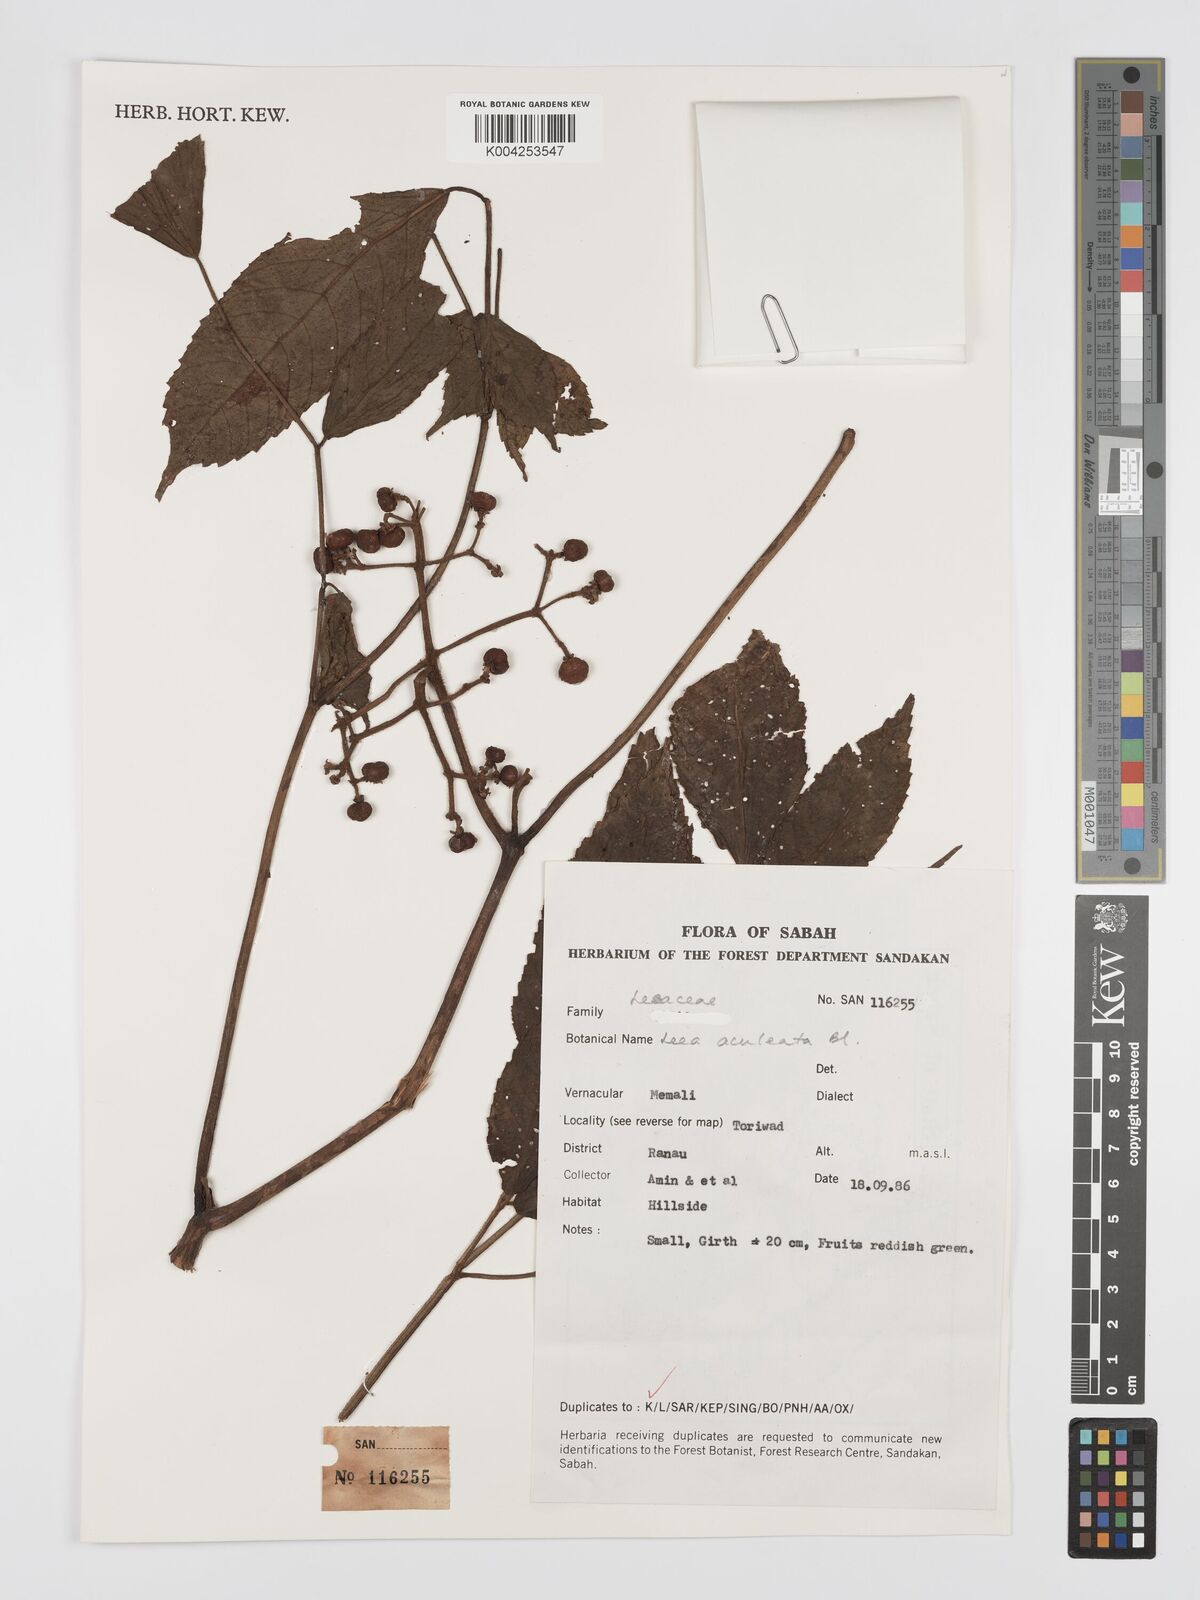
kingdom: Plantae
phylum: Tracheophyta
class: Magnoliopsida
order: Vitales
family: Vitaceae
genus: Leea
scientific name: Leea aculeata
